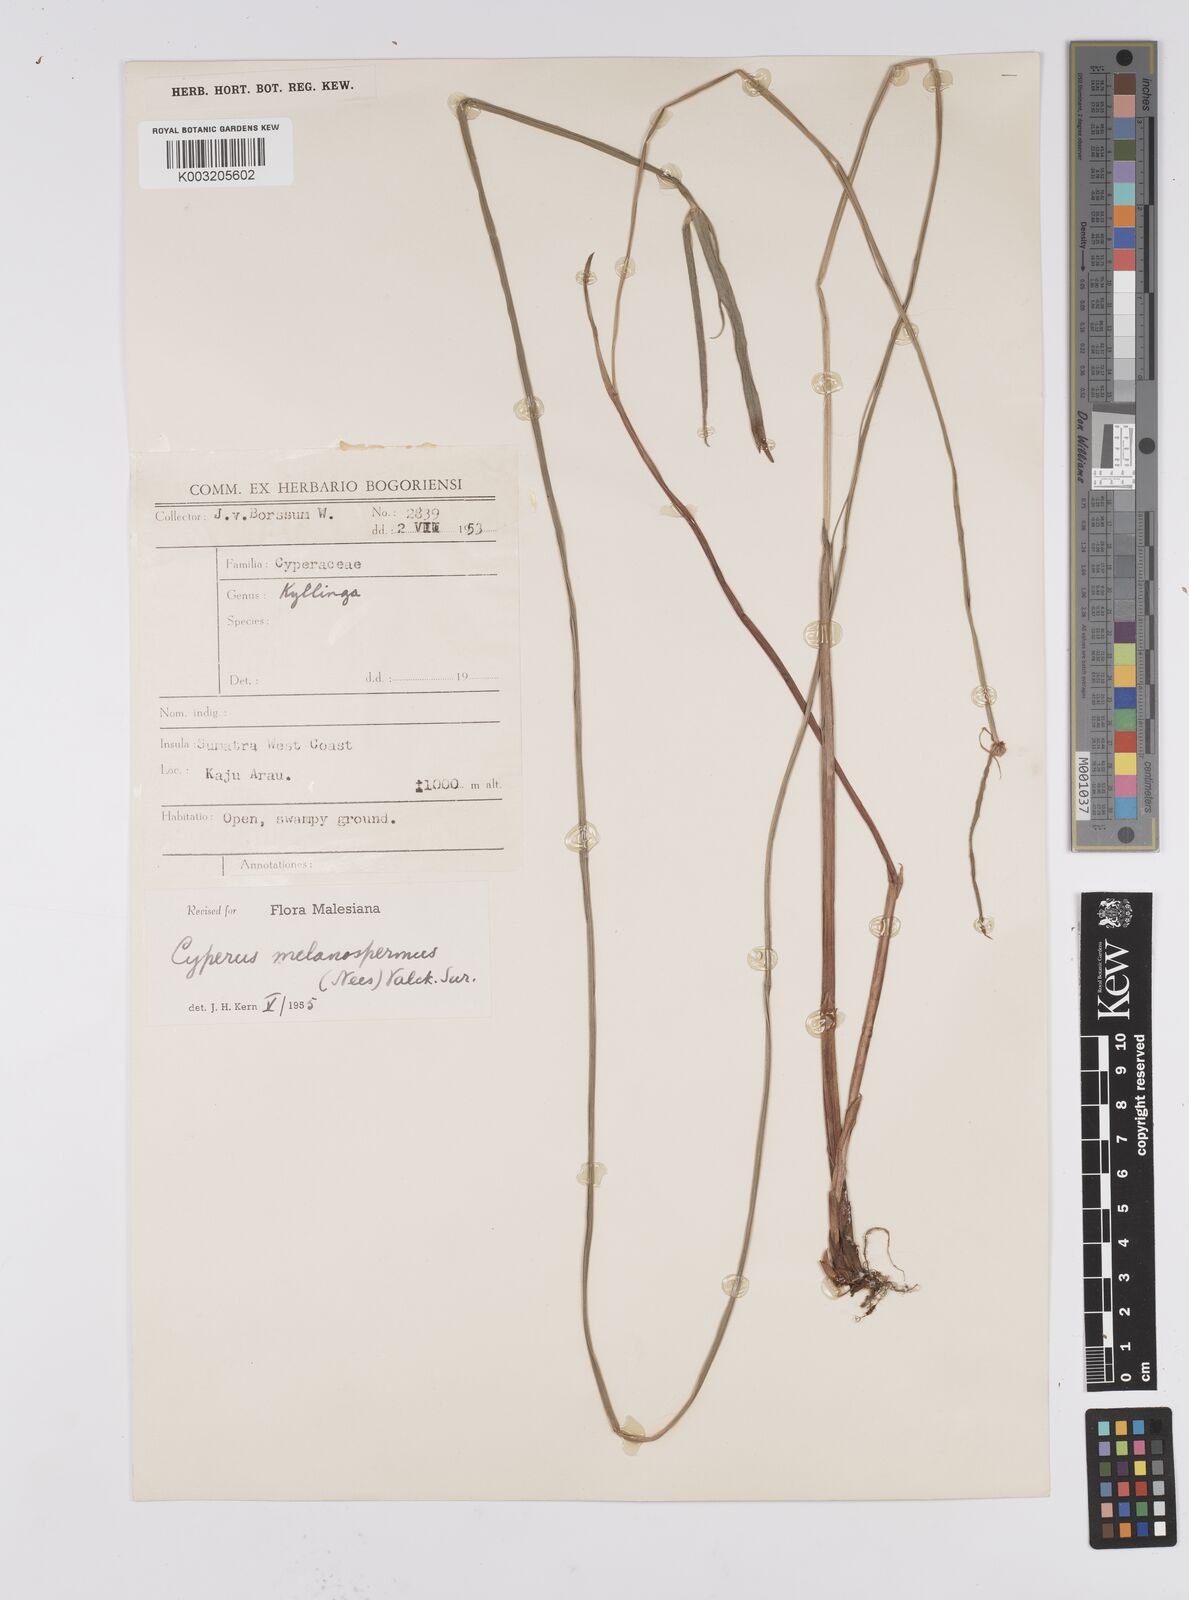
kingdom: Plantae
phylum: Tracheophyta
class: Liliopsida
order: Poales
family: Cyperaceae
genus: Cyperus
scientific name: Cyperus melanospermus
